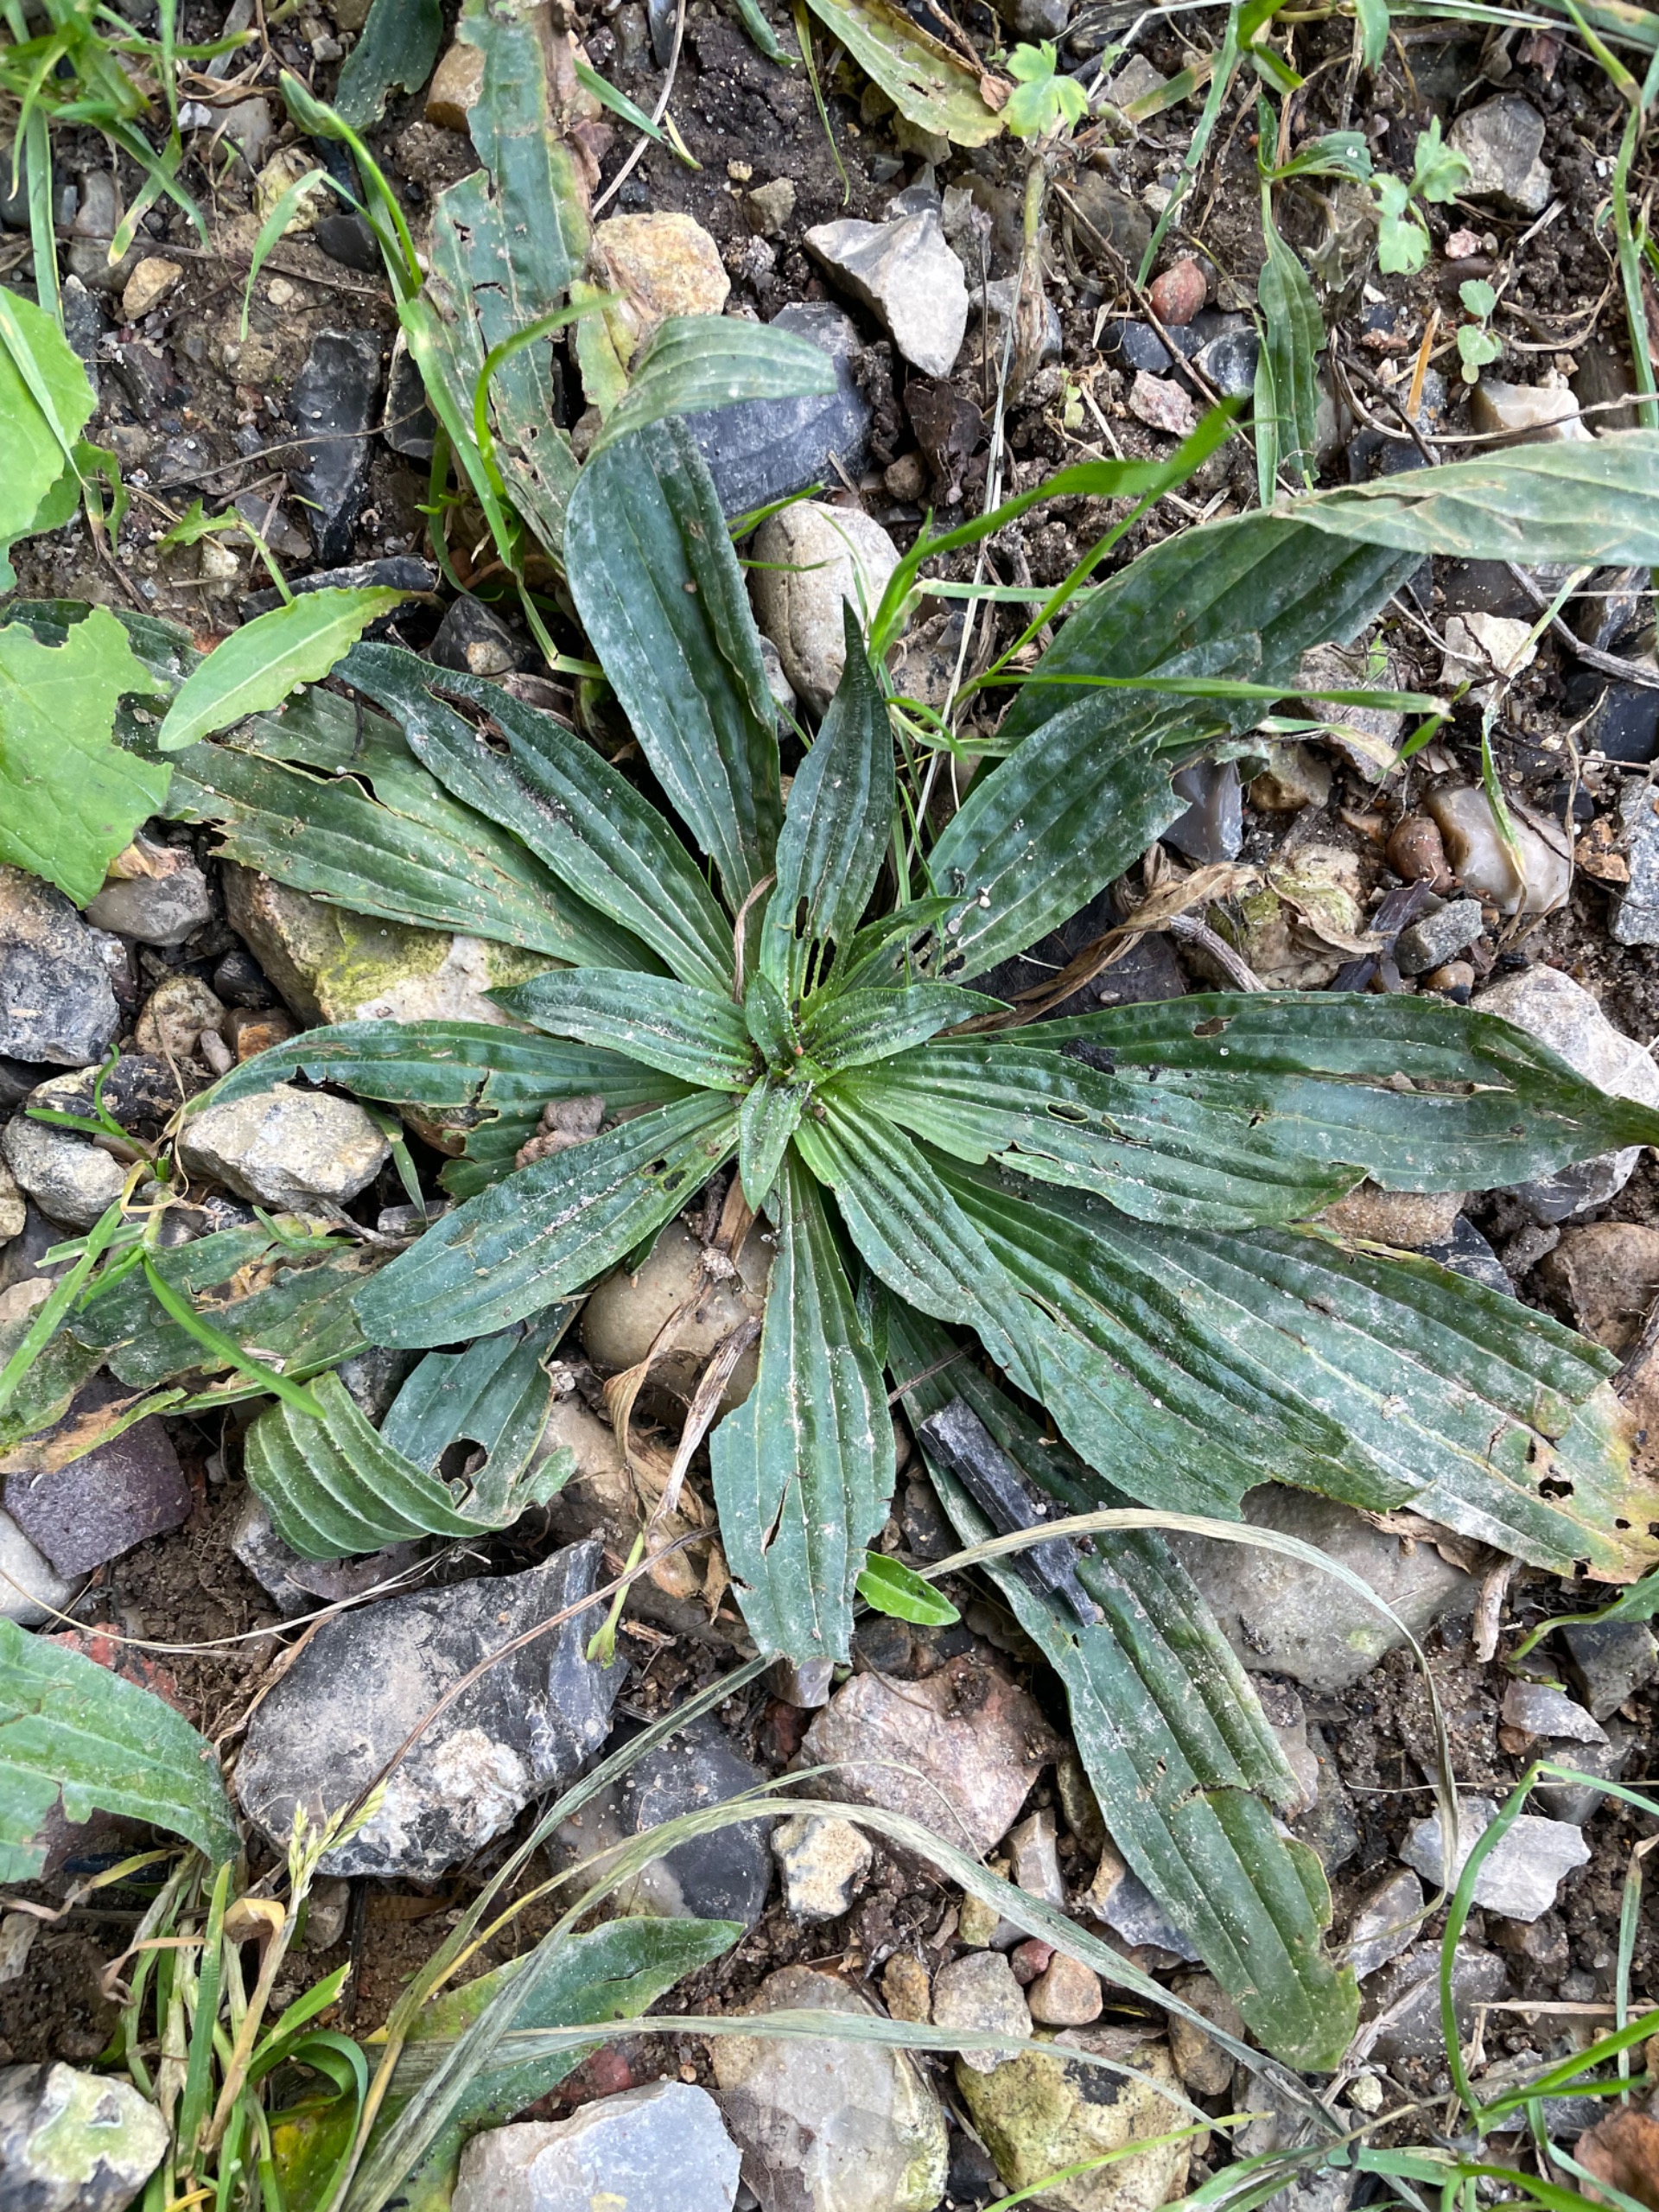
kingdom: Plantae
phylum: Tracheophyta
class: Magnoliopsida
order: Lamiales
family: Plantaginaceae
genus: Plantago
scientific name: Plantago lanceolata
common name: Lancet-vejbred
